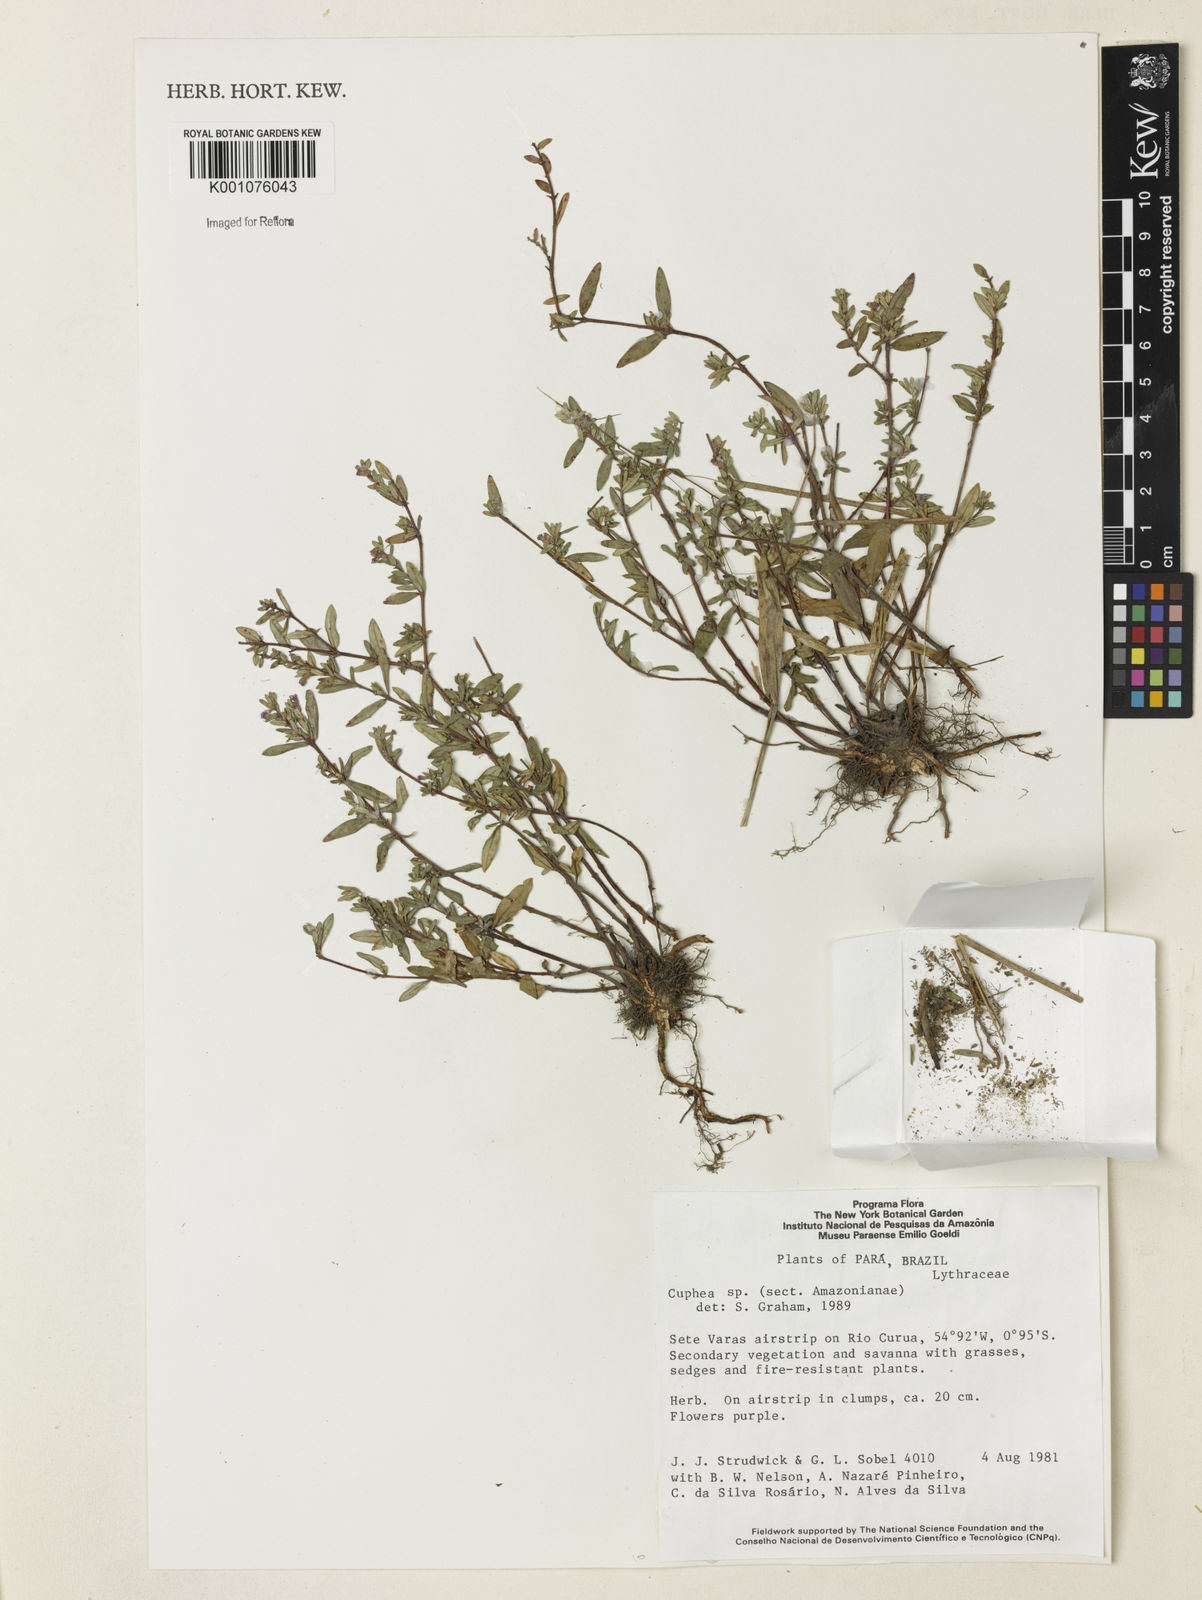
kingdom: Plantae
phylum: Tracheophyta
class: Magnoliopsida
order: Myrtales
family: Lythraceae
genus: Cuphea
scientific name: Cuphea
